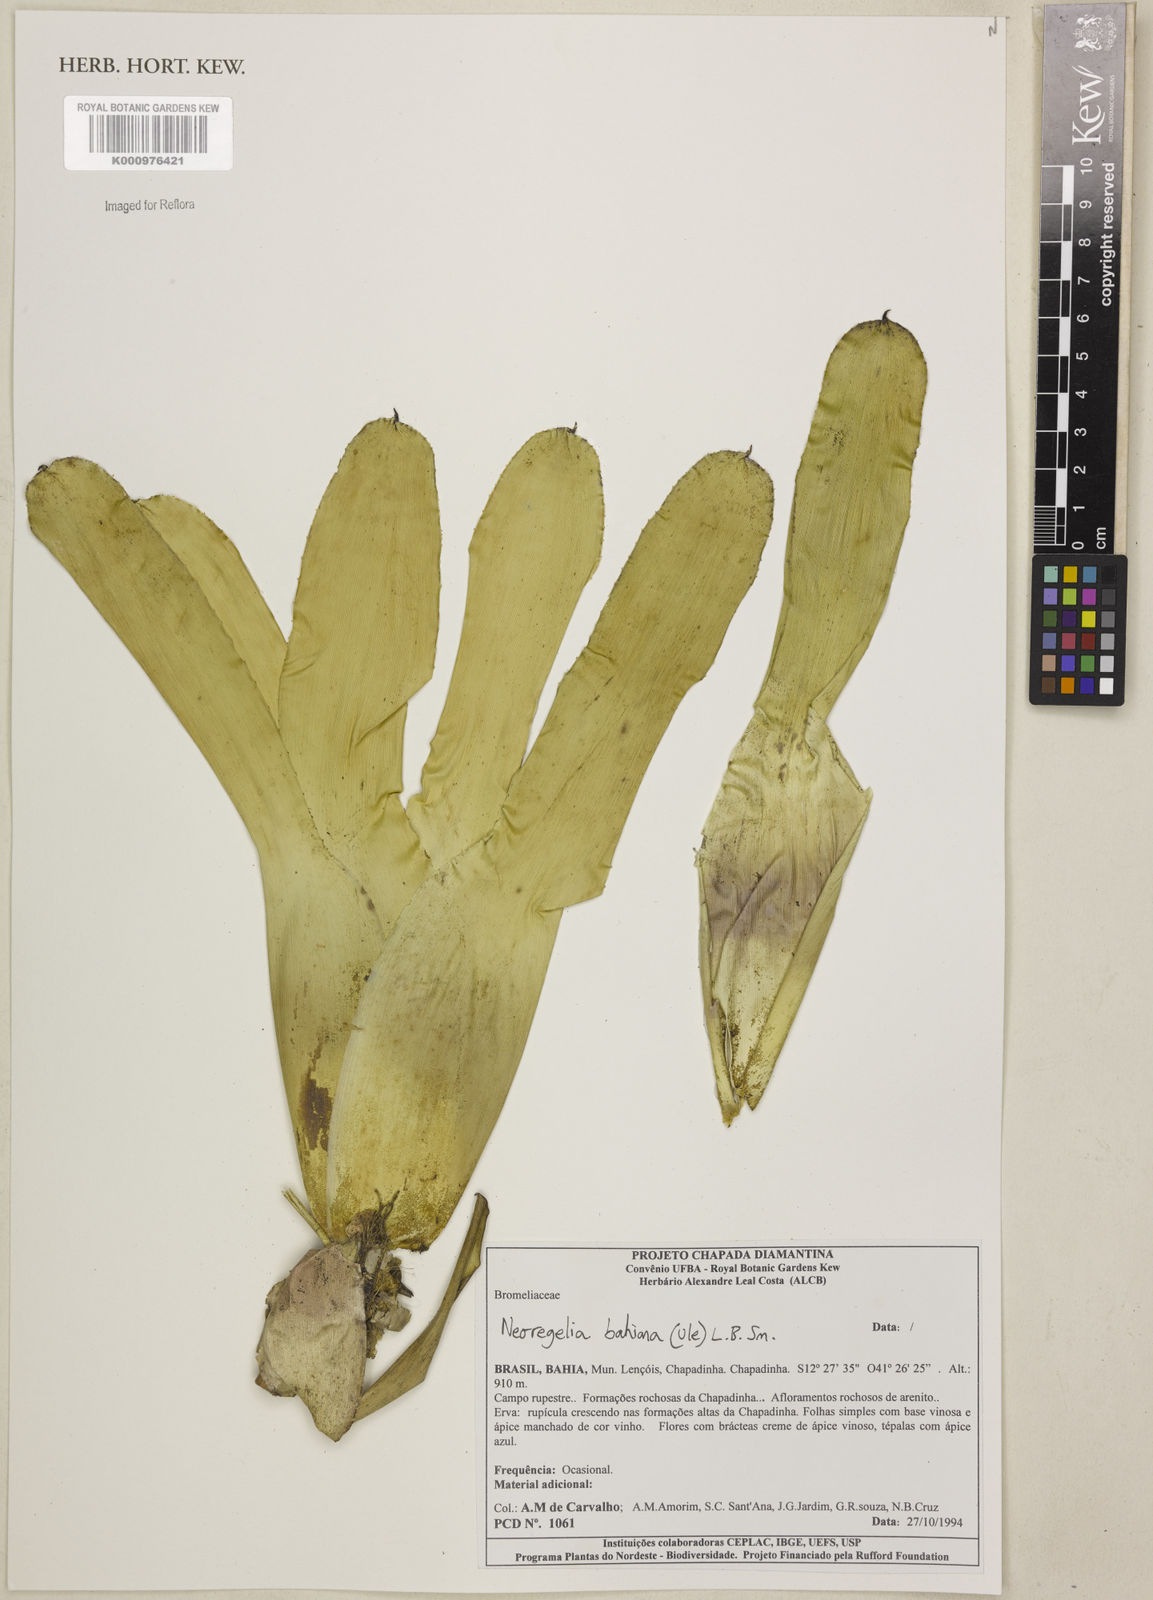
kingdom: Plantae
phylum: Tracheophyta
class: Liliopsida
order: Poales
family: Bromeliaceae
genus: Neoregelia
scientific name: Neoregelia bahiana
